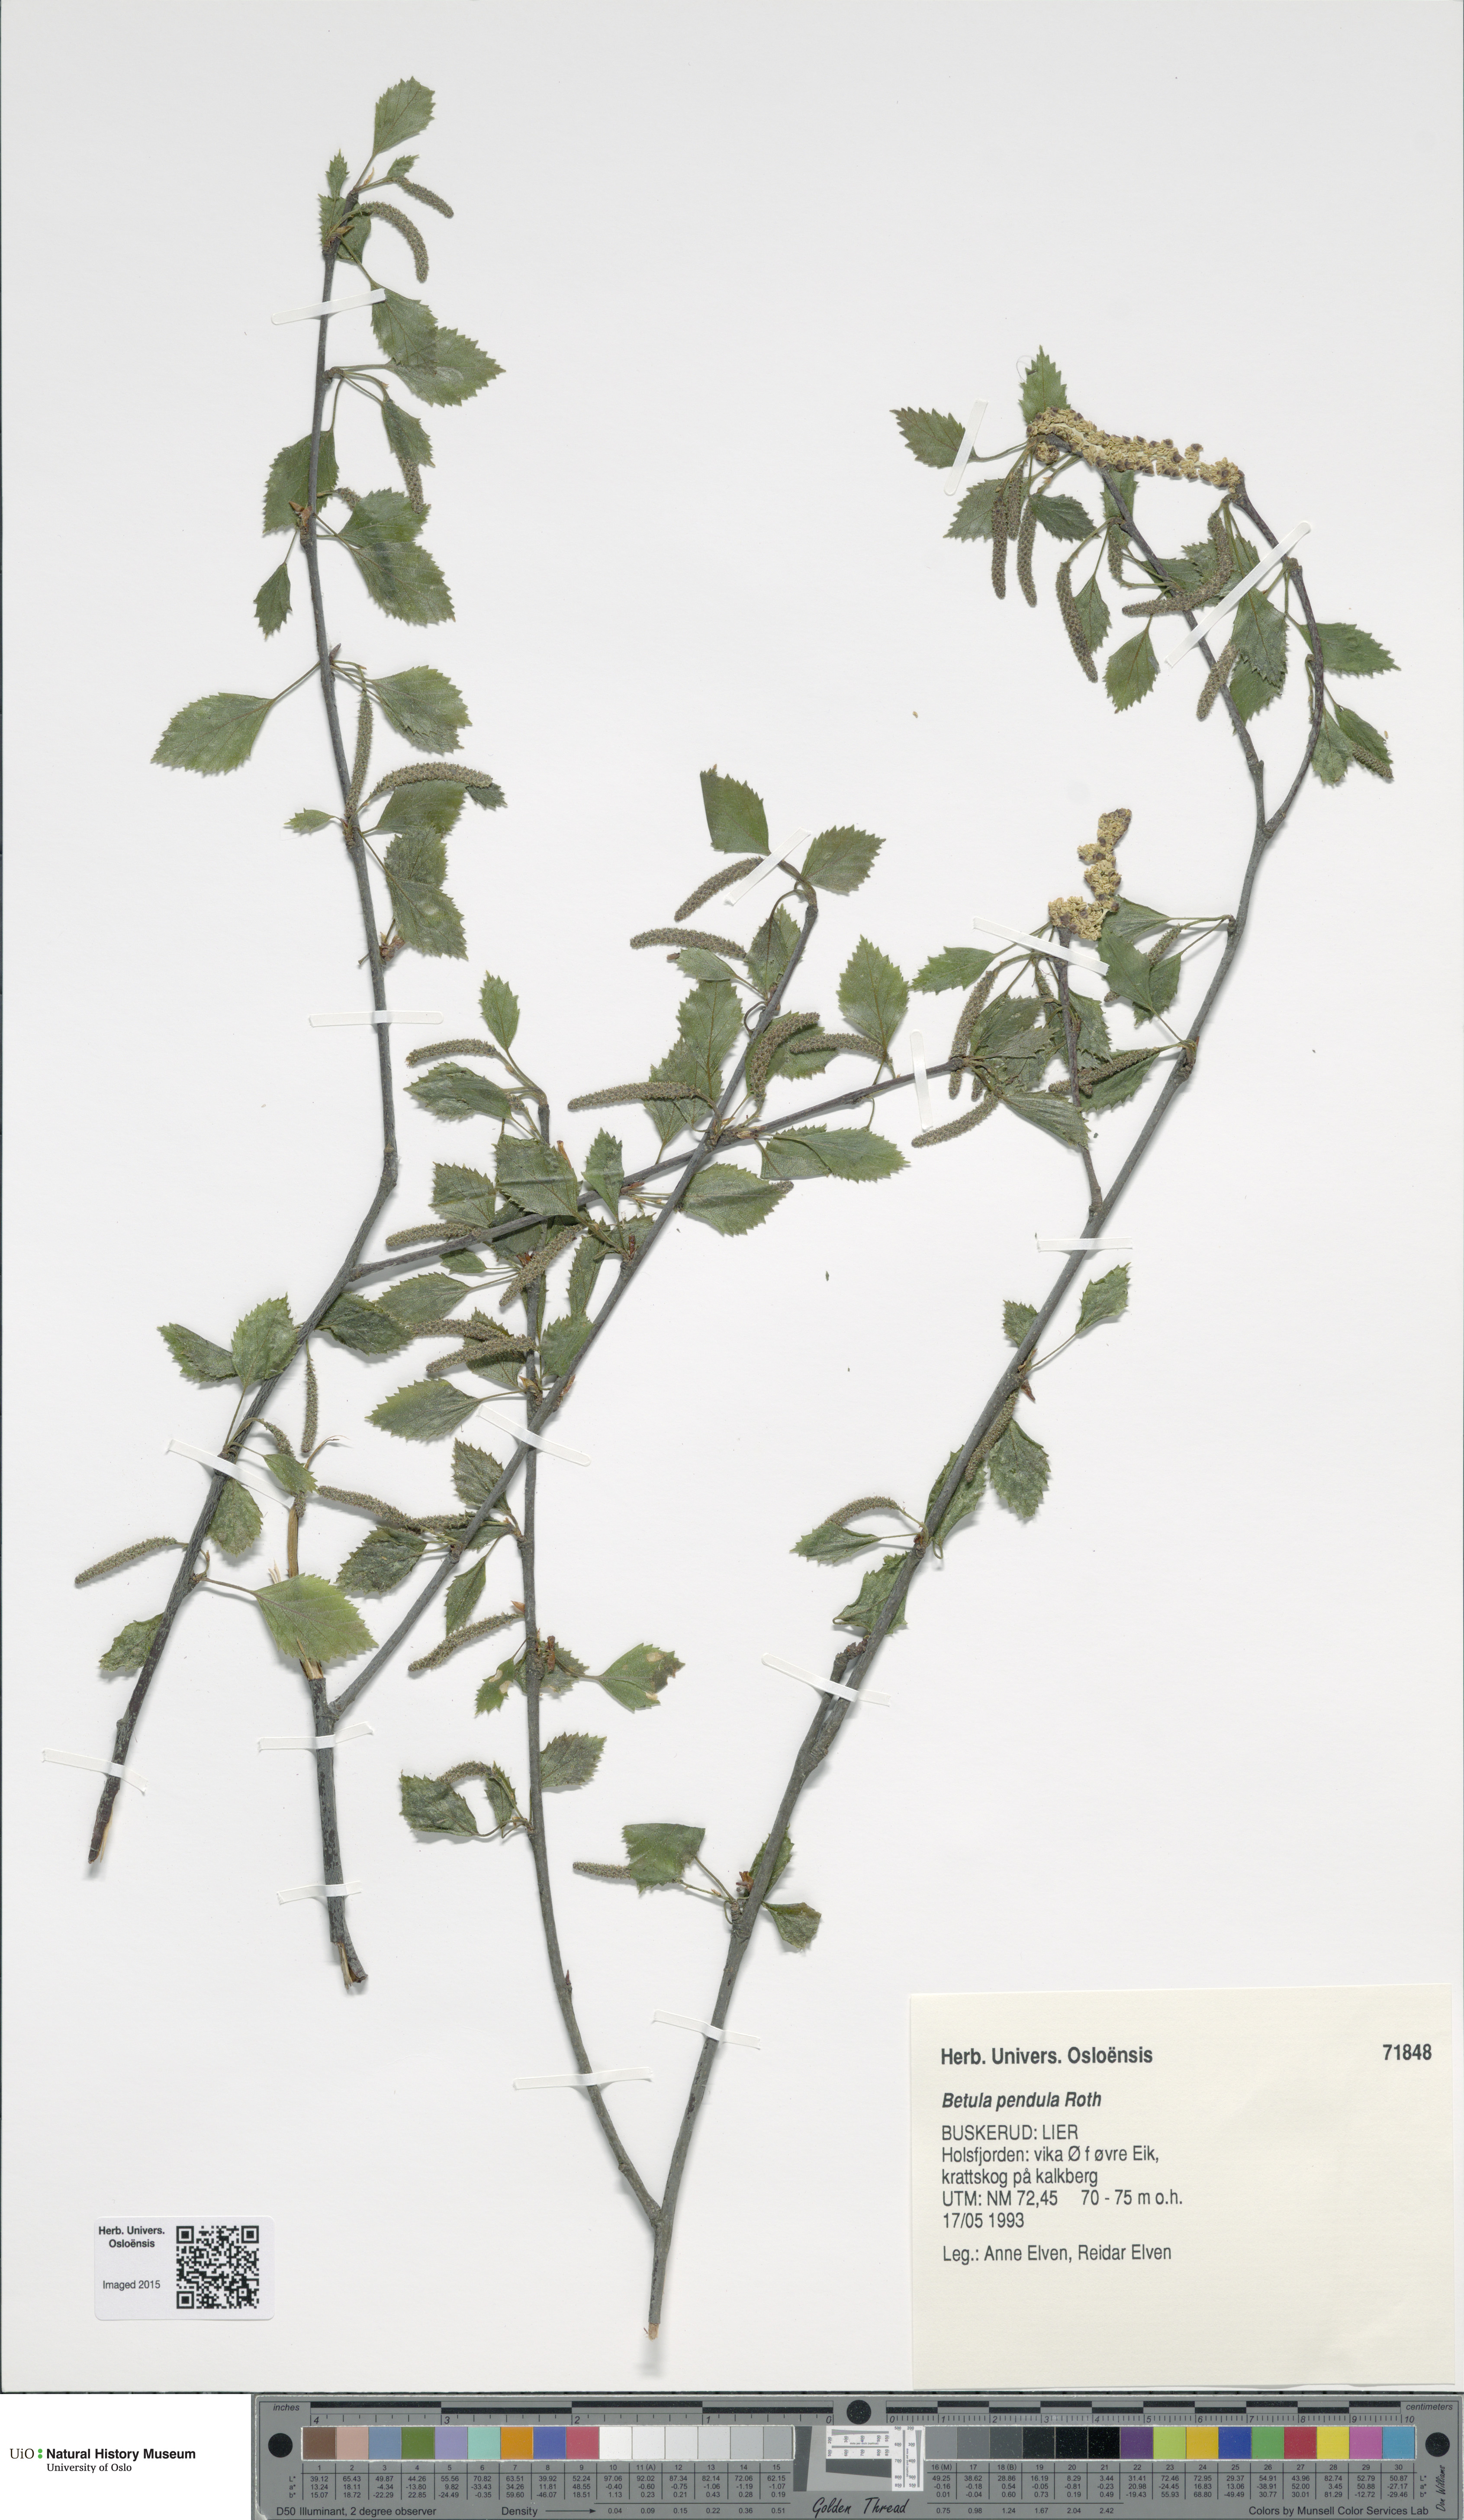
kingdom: Plantae
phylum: Tracheophyta
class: Magnoliopsida
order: Fagales
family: Betulaceae
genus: Betula
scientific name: Betula pendula
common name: Silver birch
